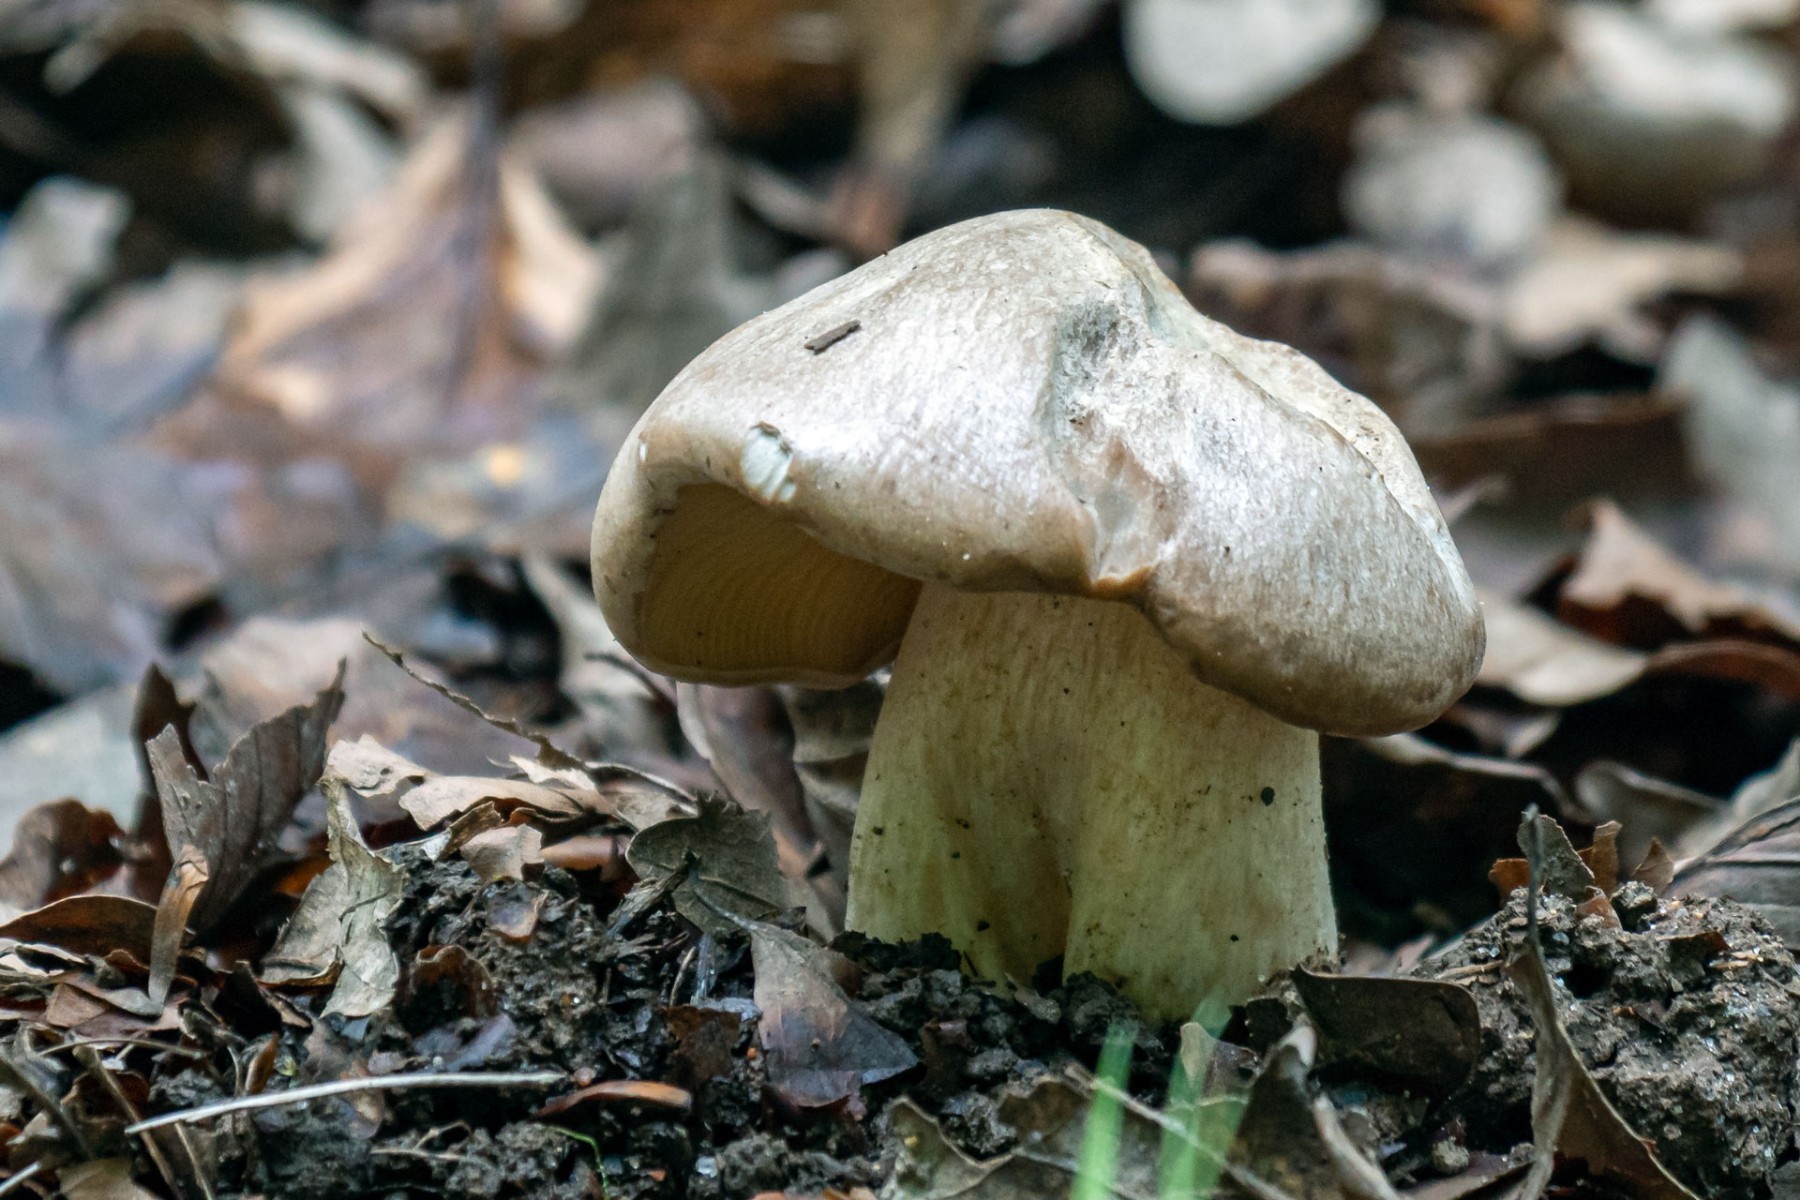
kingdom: Fungi
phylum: Basidiomycota
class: Agaricomycetes
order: Agaricales
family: Entolomataceae
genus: Entoloma
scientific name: Entoloma sinuatum
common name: giftig rødblad
